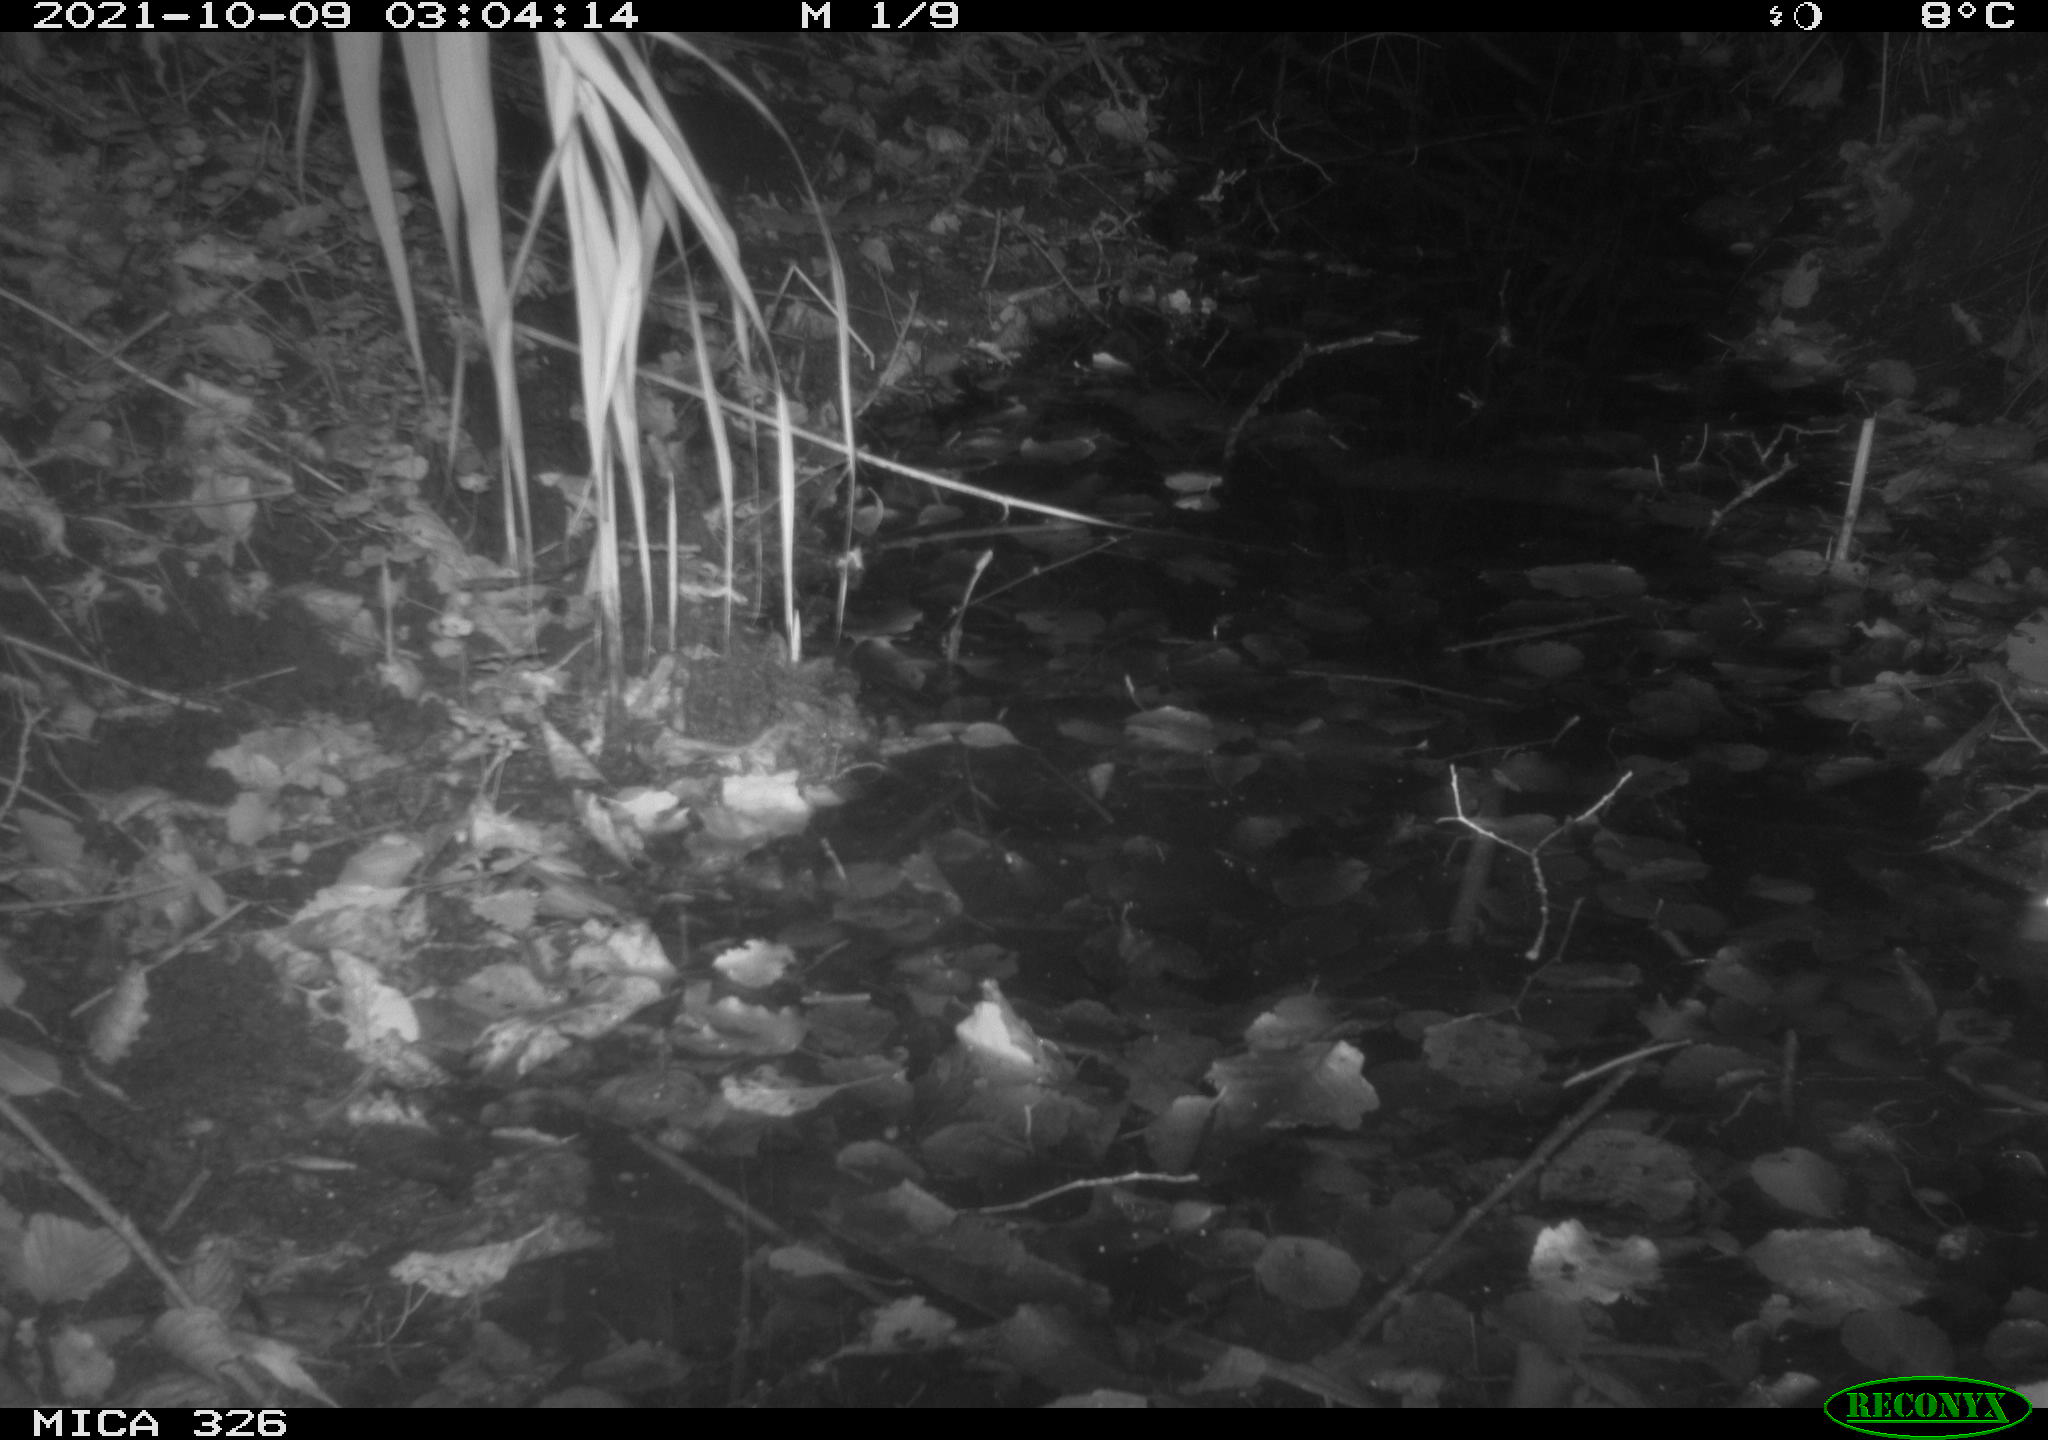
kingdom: Animalia
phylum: Chordata
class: Mammalia
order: Rodentia
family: Muridae
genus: Rattus
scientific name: Rattus norvegicus
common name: Brown rat
